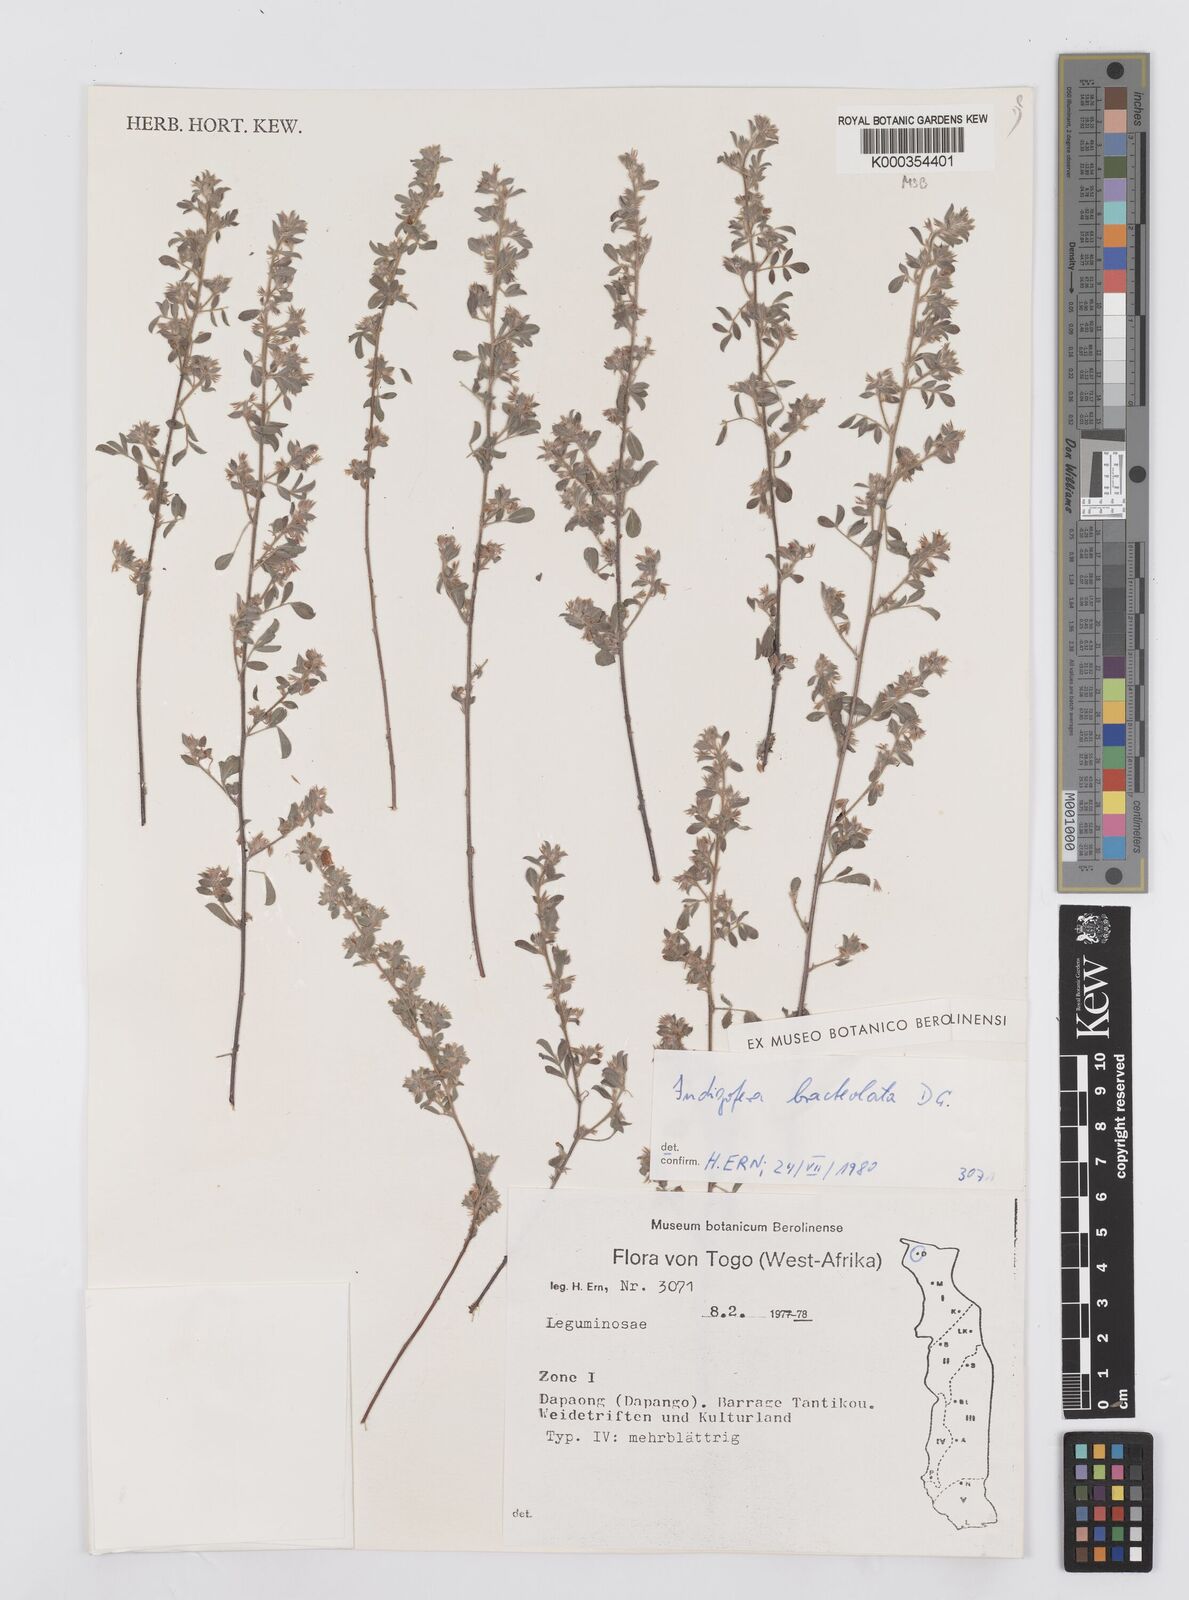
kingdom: Plantae
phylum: Tracheophyta
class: Magnoliopsida
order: Fabales
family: Fabaceae
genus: Indigofera
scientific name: Indigofera bracteolata
